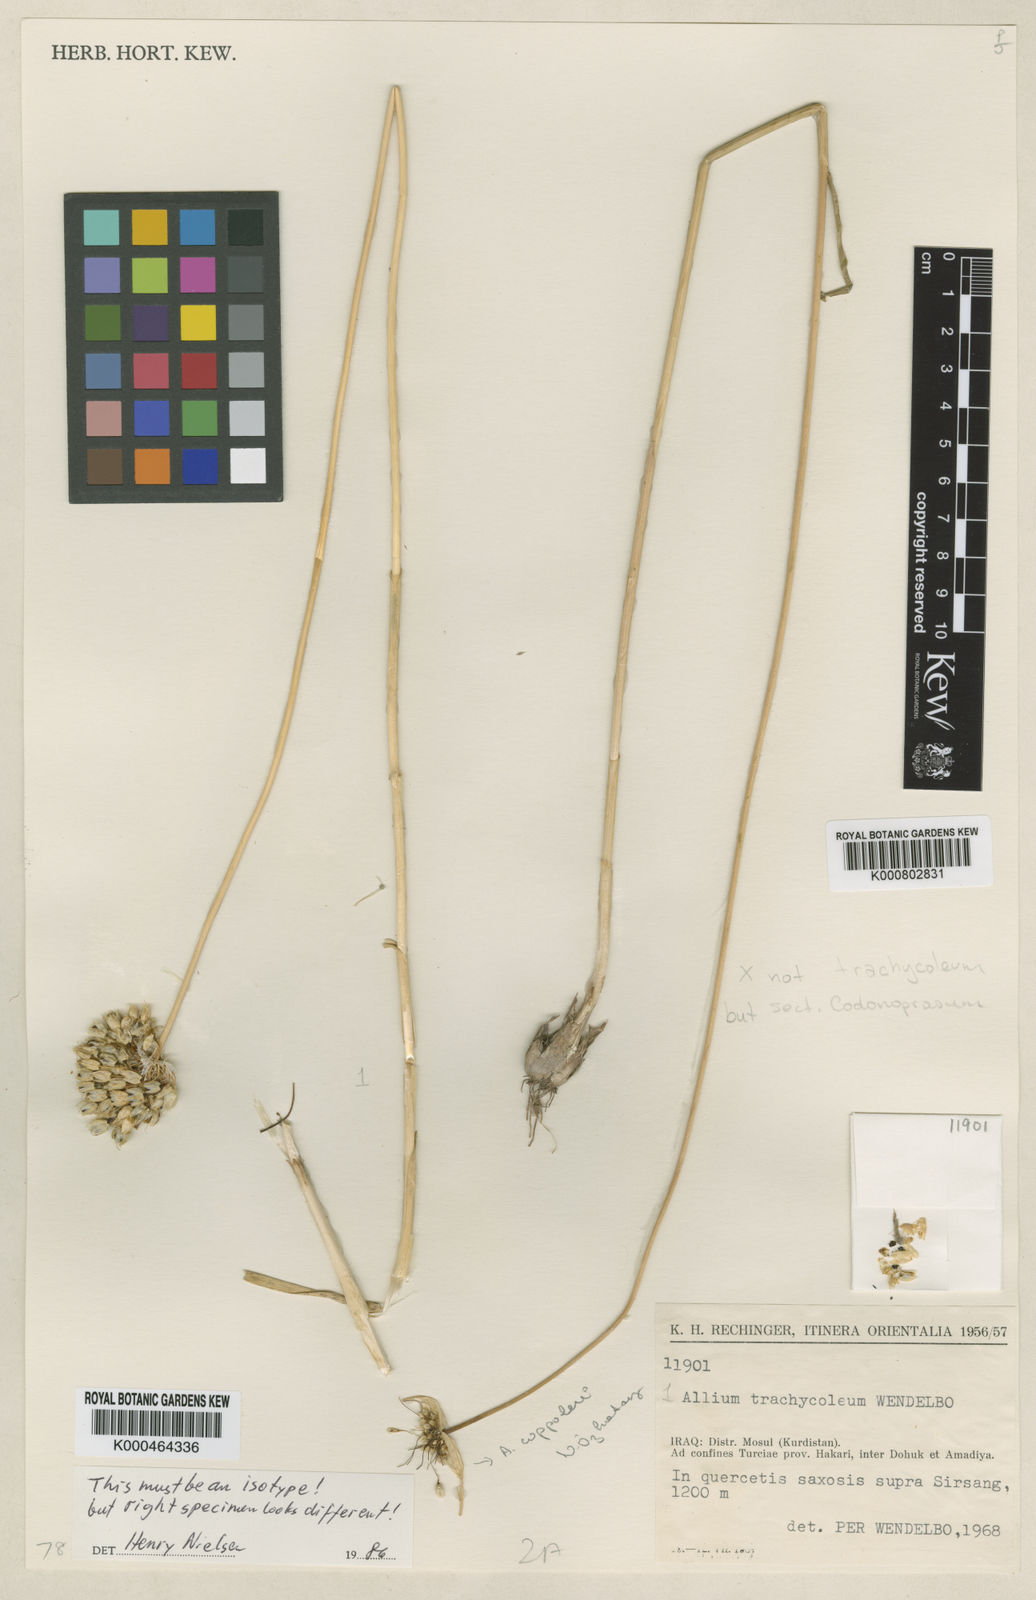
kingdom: Plantae
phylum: Tracheophyta
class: Liliopsida
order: Asparagales
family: Amaryllidaceae
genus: Allium
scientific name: Allium trachycoleum
